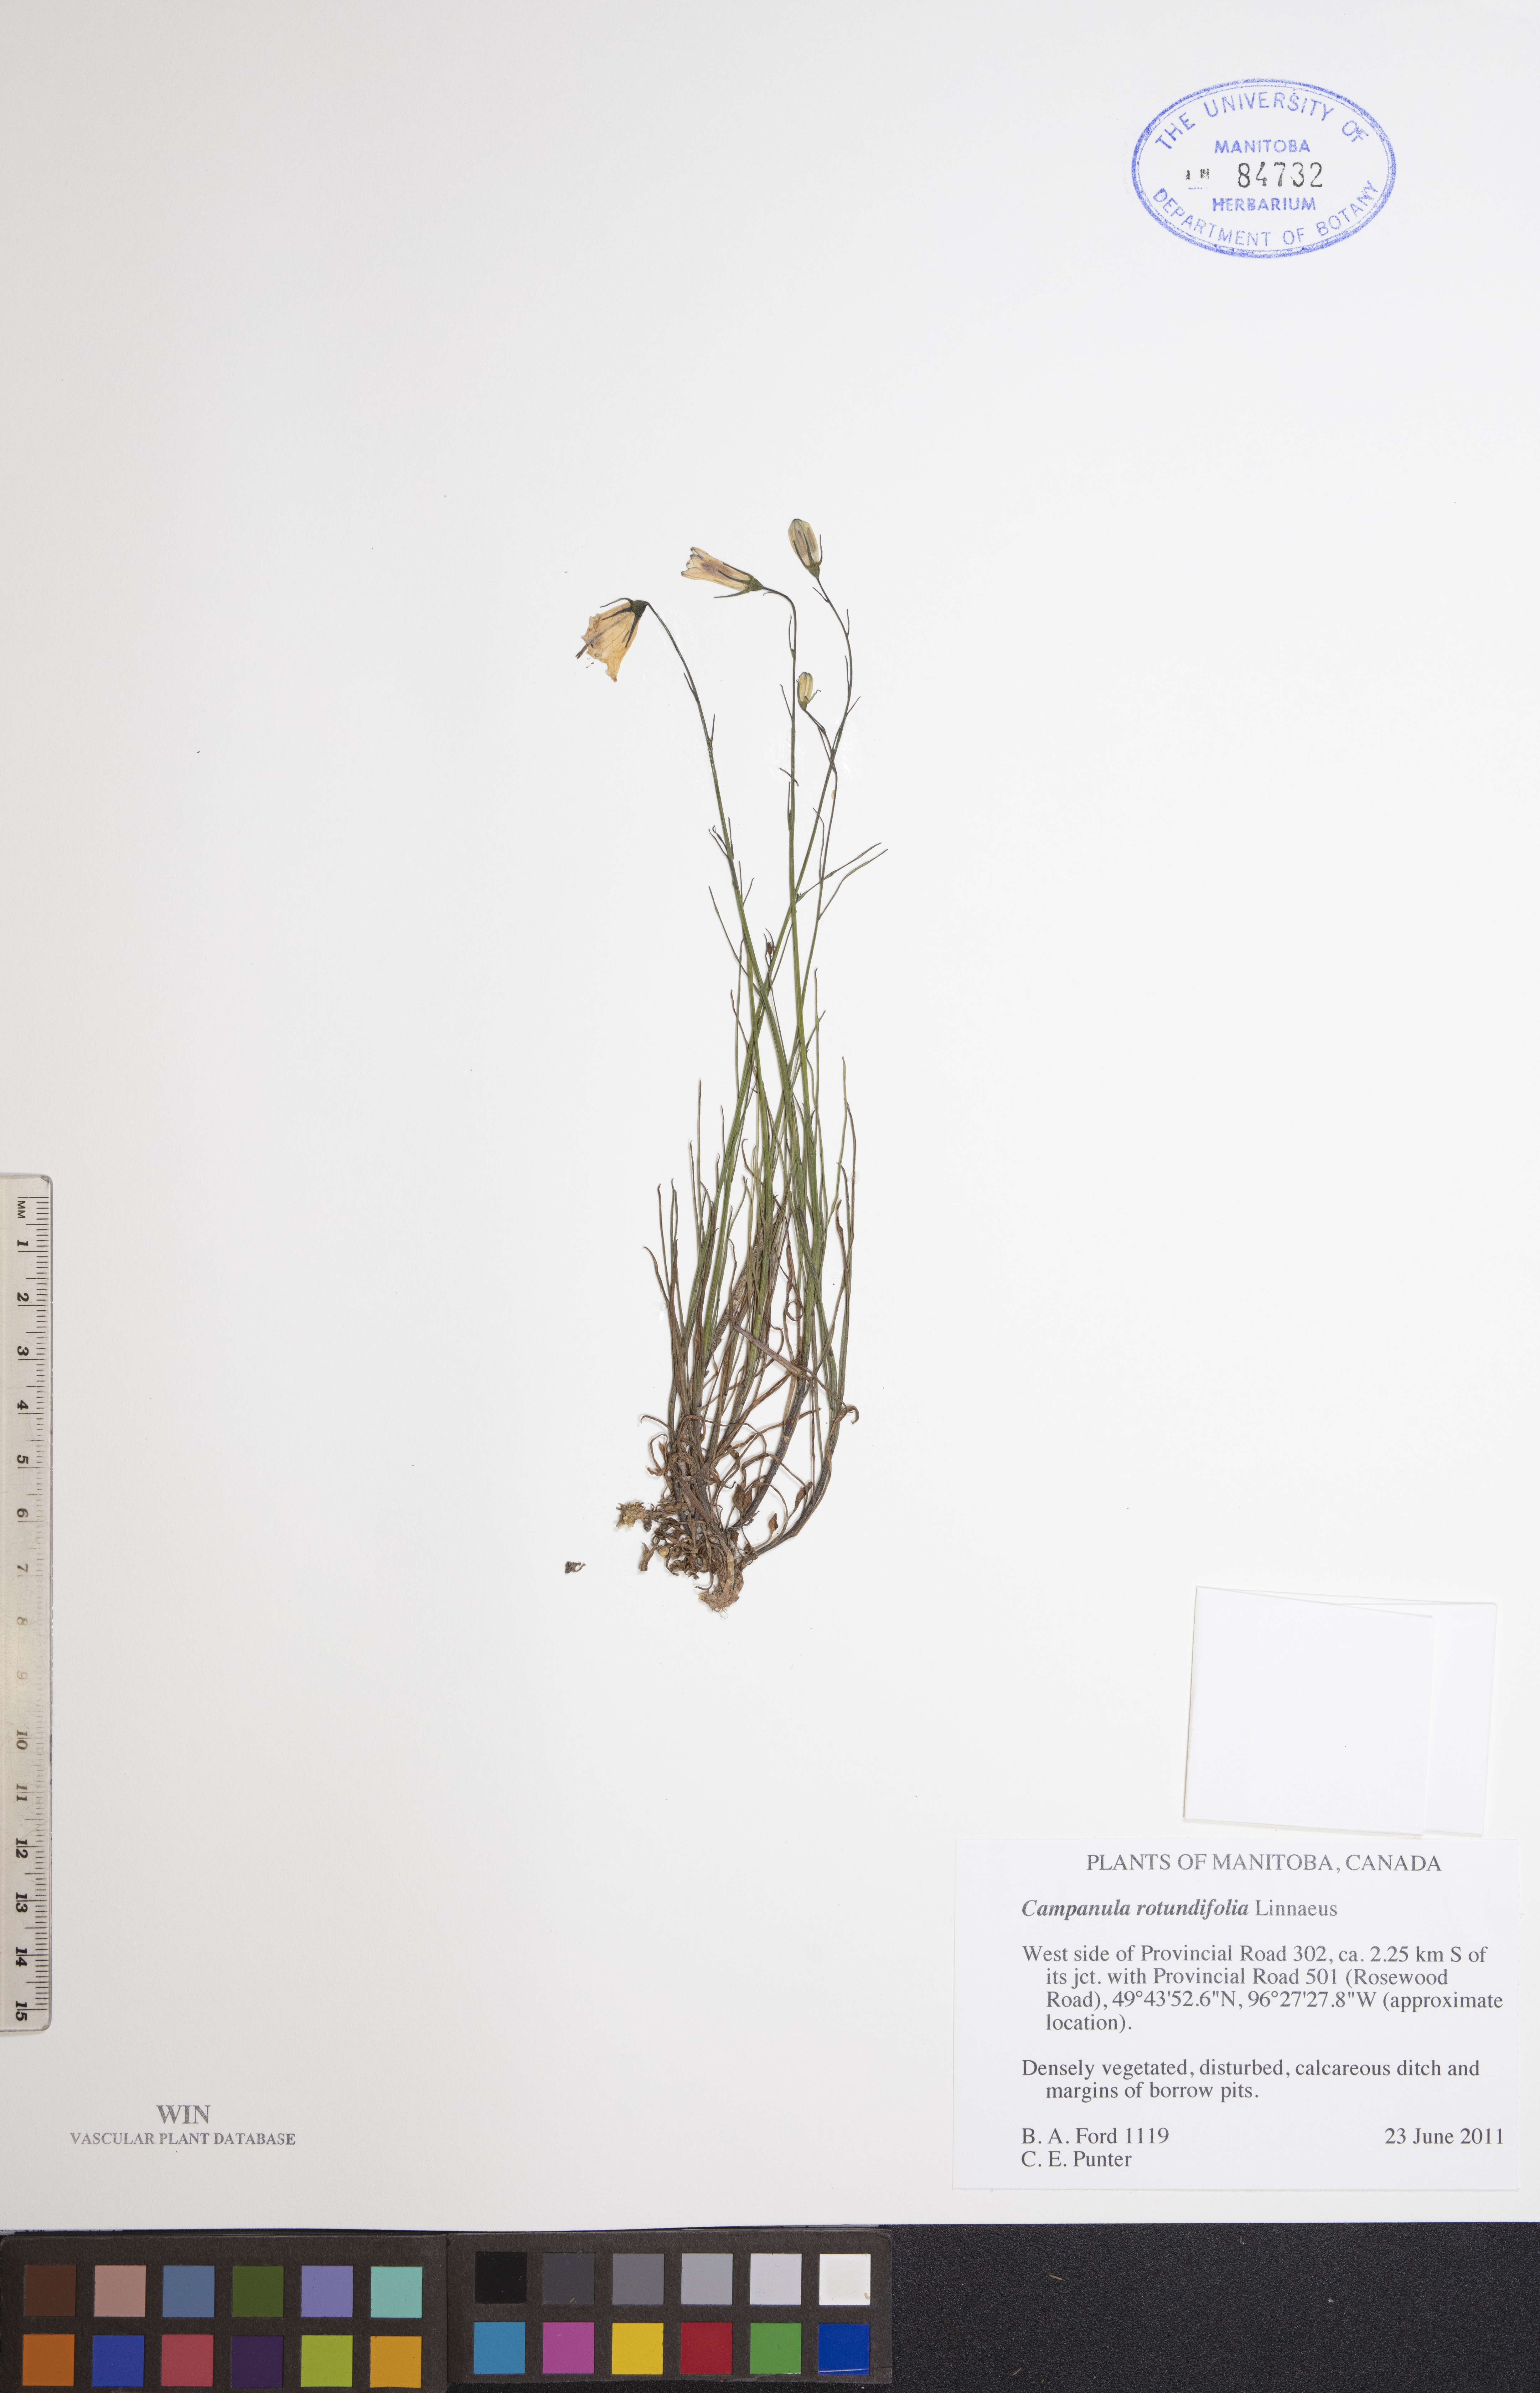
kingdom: Plantae
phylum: Tracheophyta
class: Magnoliopsida
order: Asterales
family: Campanulaceae
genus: Campanula
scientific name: Campanula rotundifolia
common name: Harebell
